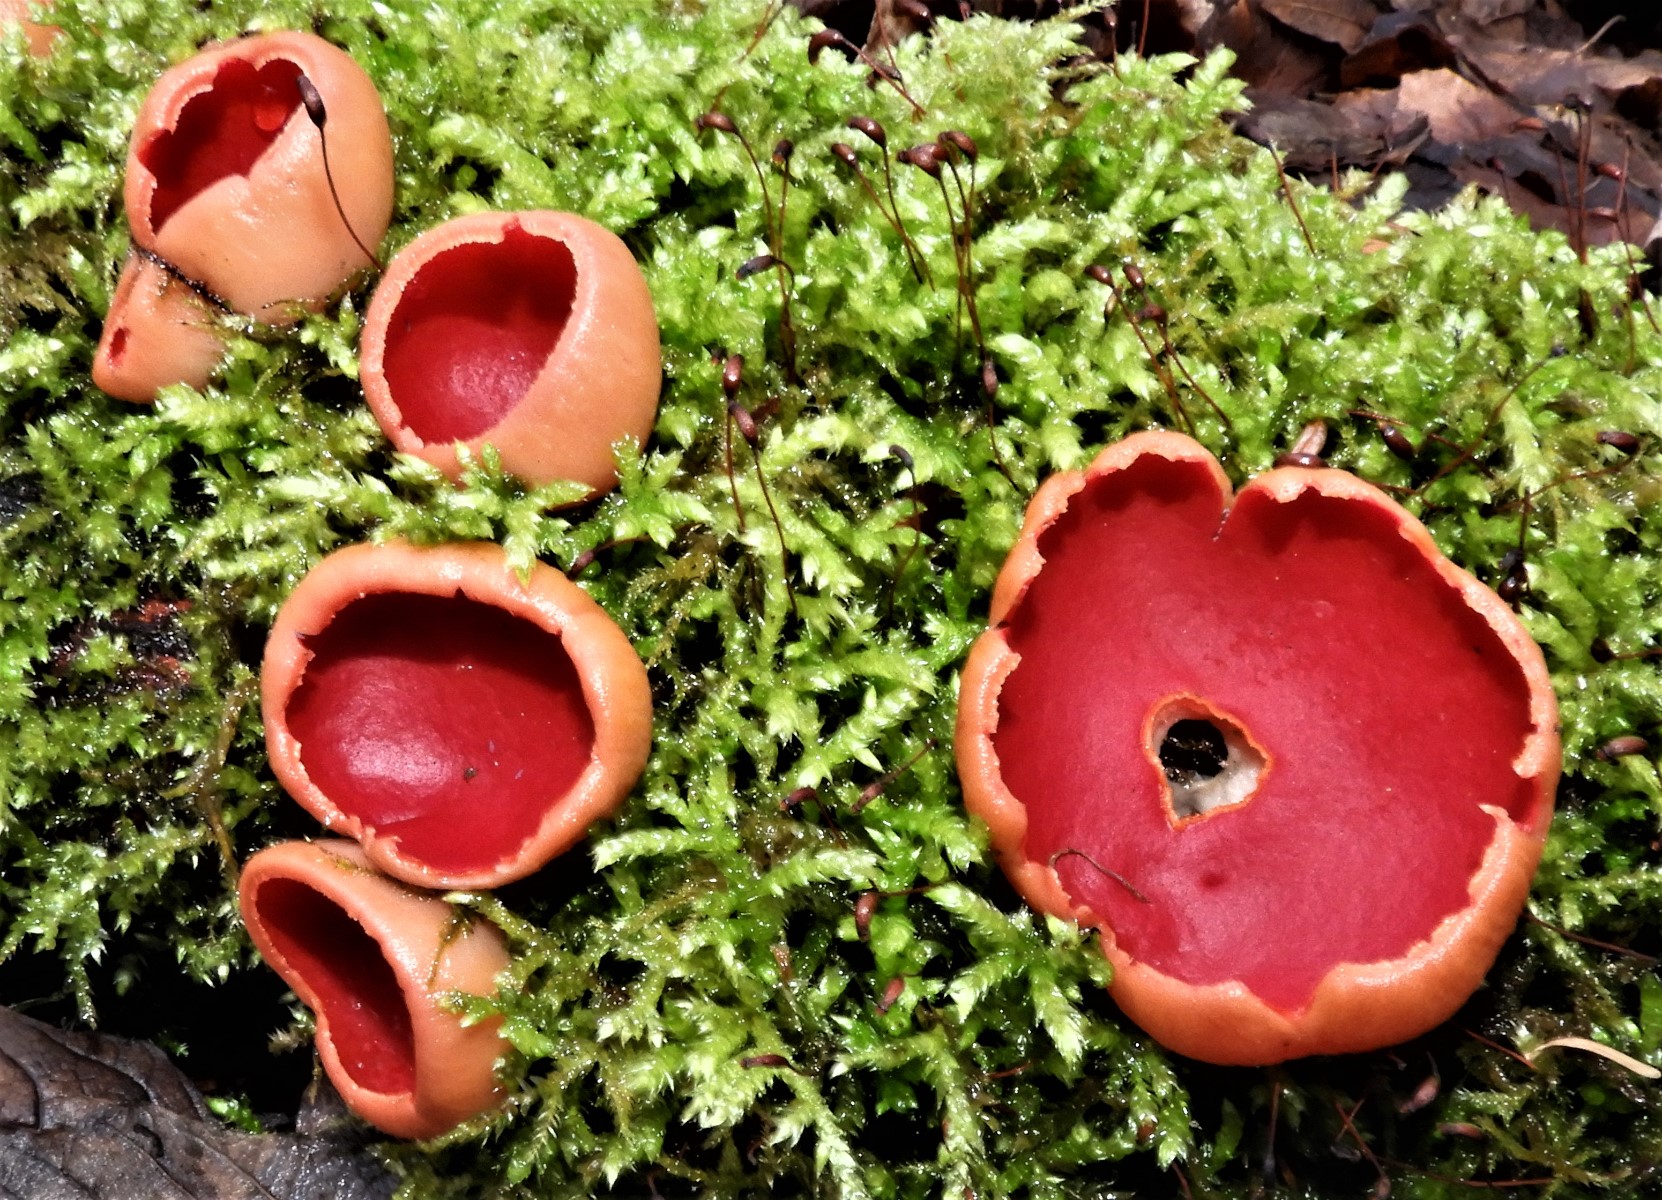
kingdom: Fungi
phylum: Ascomycota
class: Pezizomycetes
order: Pezizales
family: Sarcoscyphaceae
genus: Sarcoscypha
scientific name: Sarcoscypha austriaca
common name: krølhåret pragtbæger
